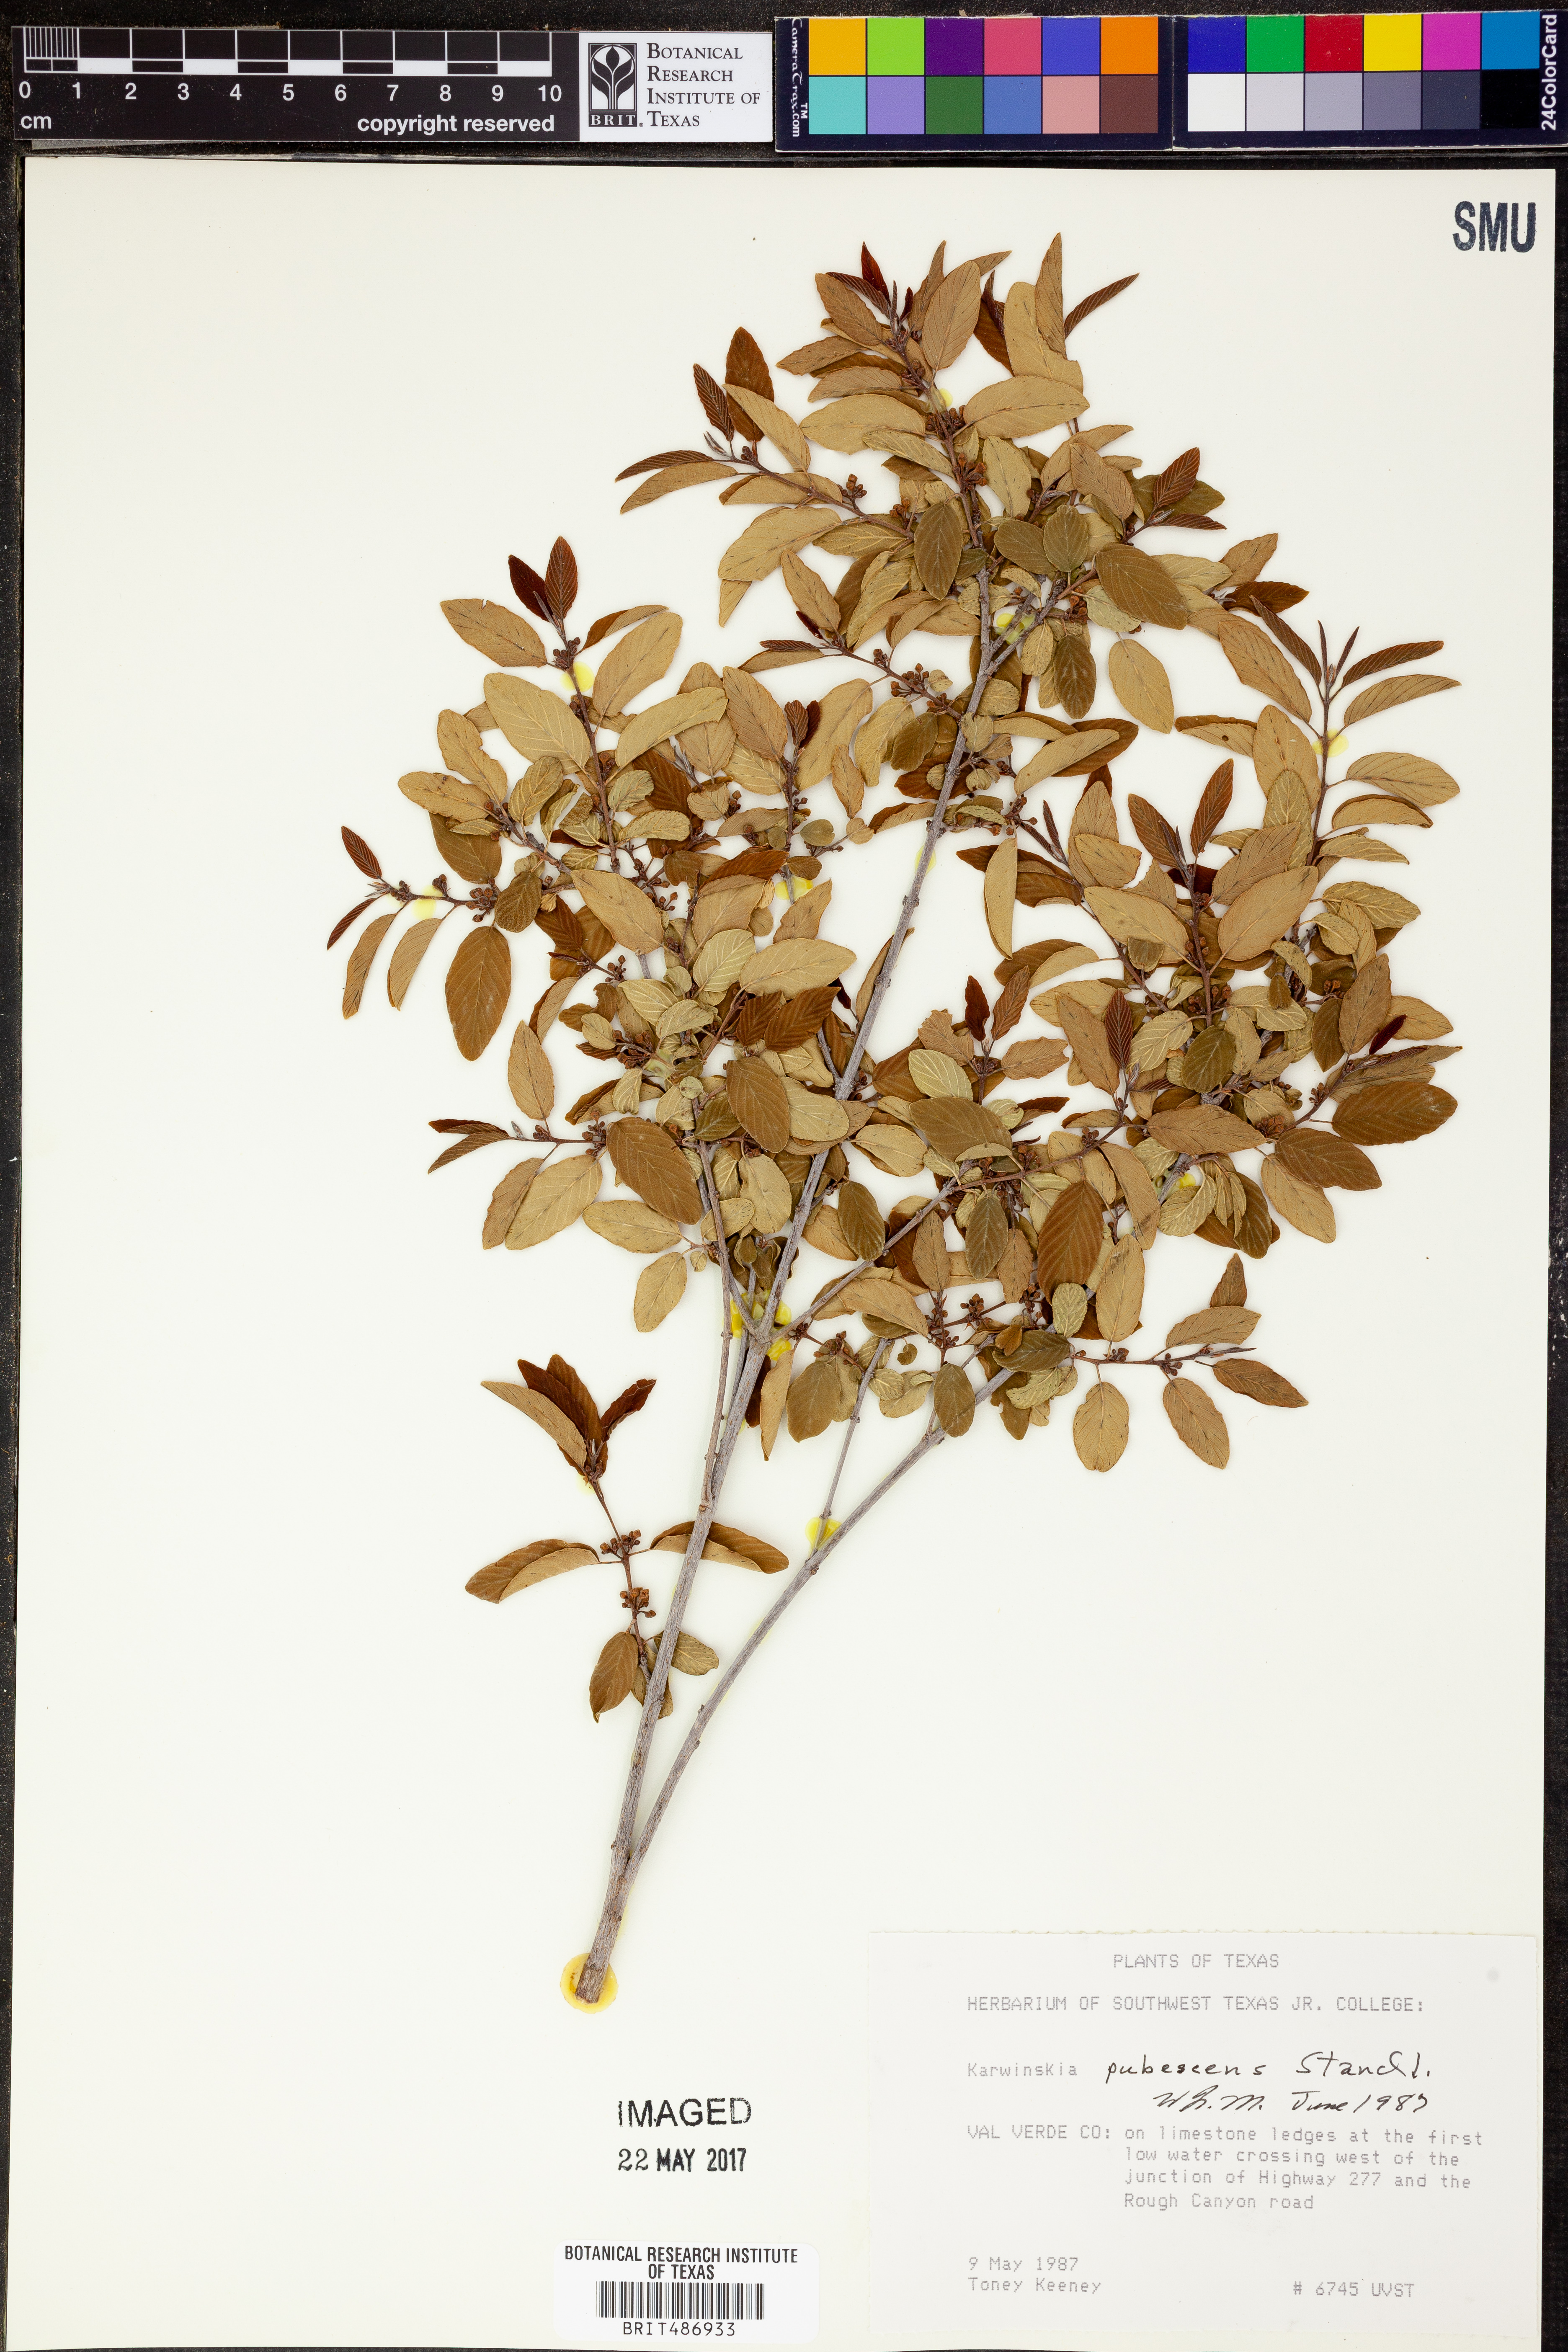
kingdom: Plantae
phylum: Tracheophyta
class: Magnoliopsida
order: Rosales
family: Rhamnaceae
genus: Karwinskia
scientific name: Karwinskia parvifolia
